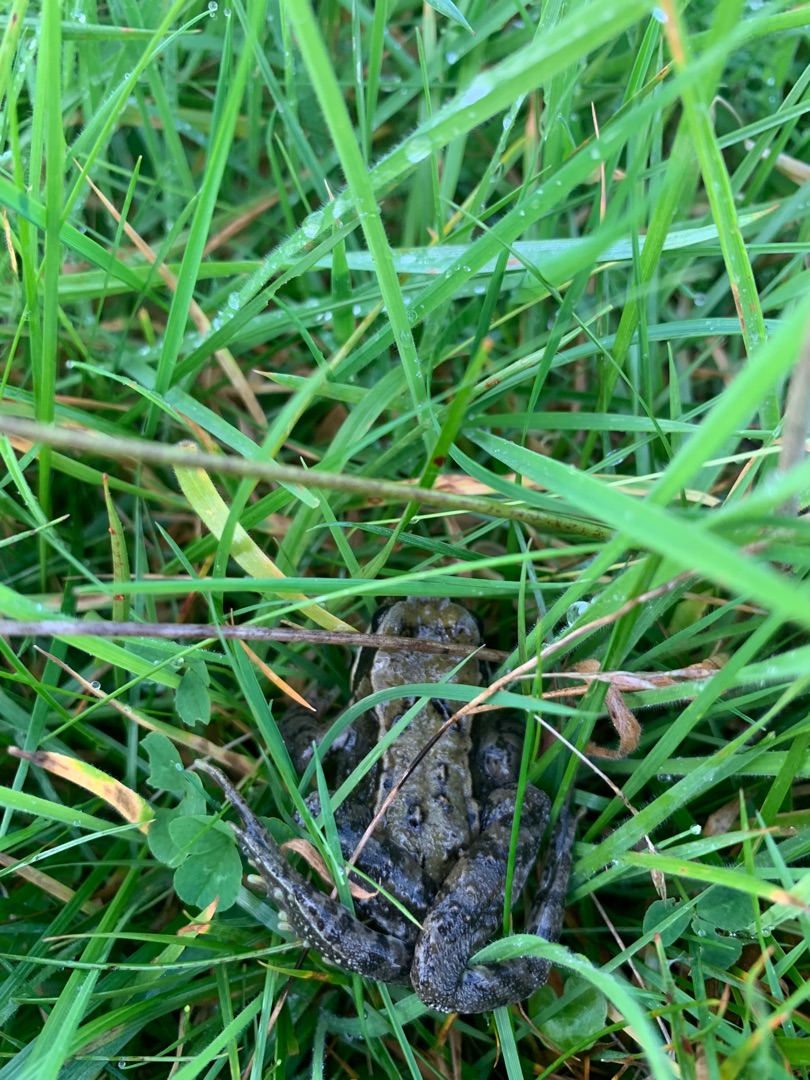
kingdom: Animalia
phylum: Chordata
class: Amphibia
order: Anura
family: Ranidae
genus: Rana
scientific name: Rana temporaria
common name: Butsnudet frø
